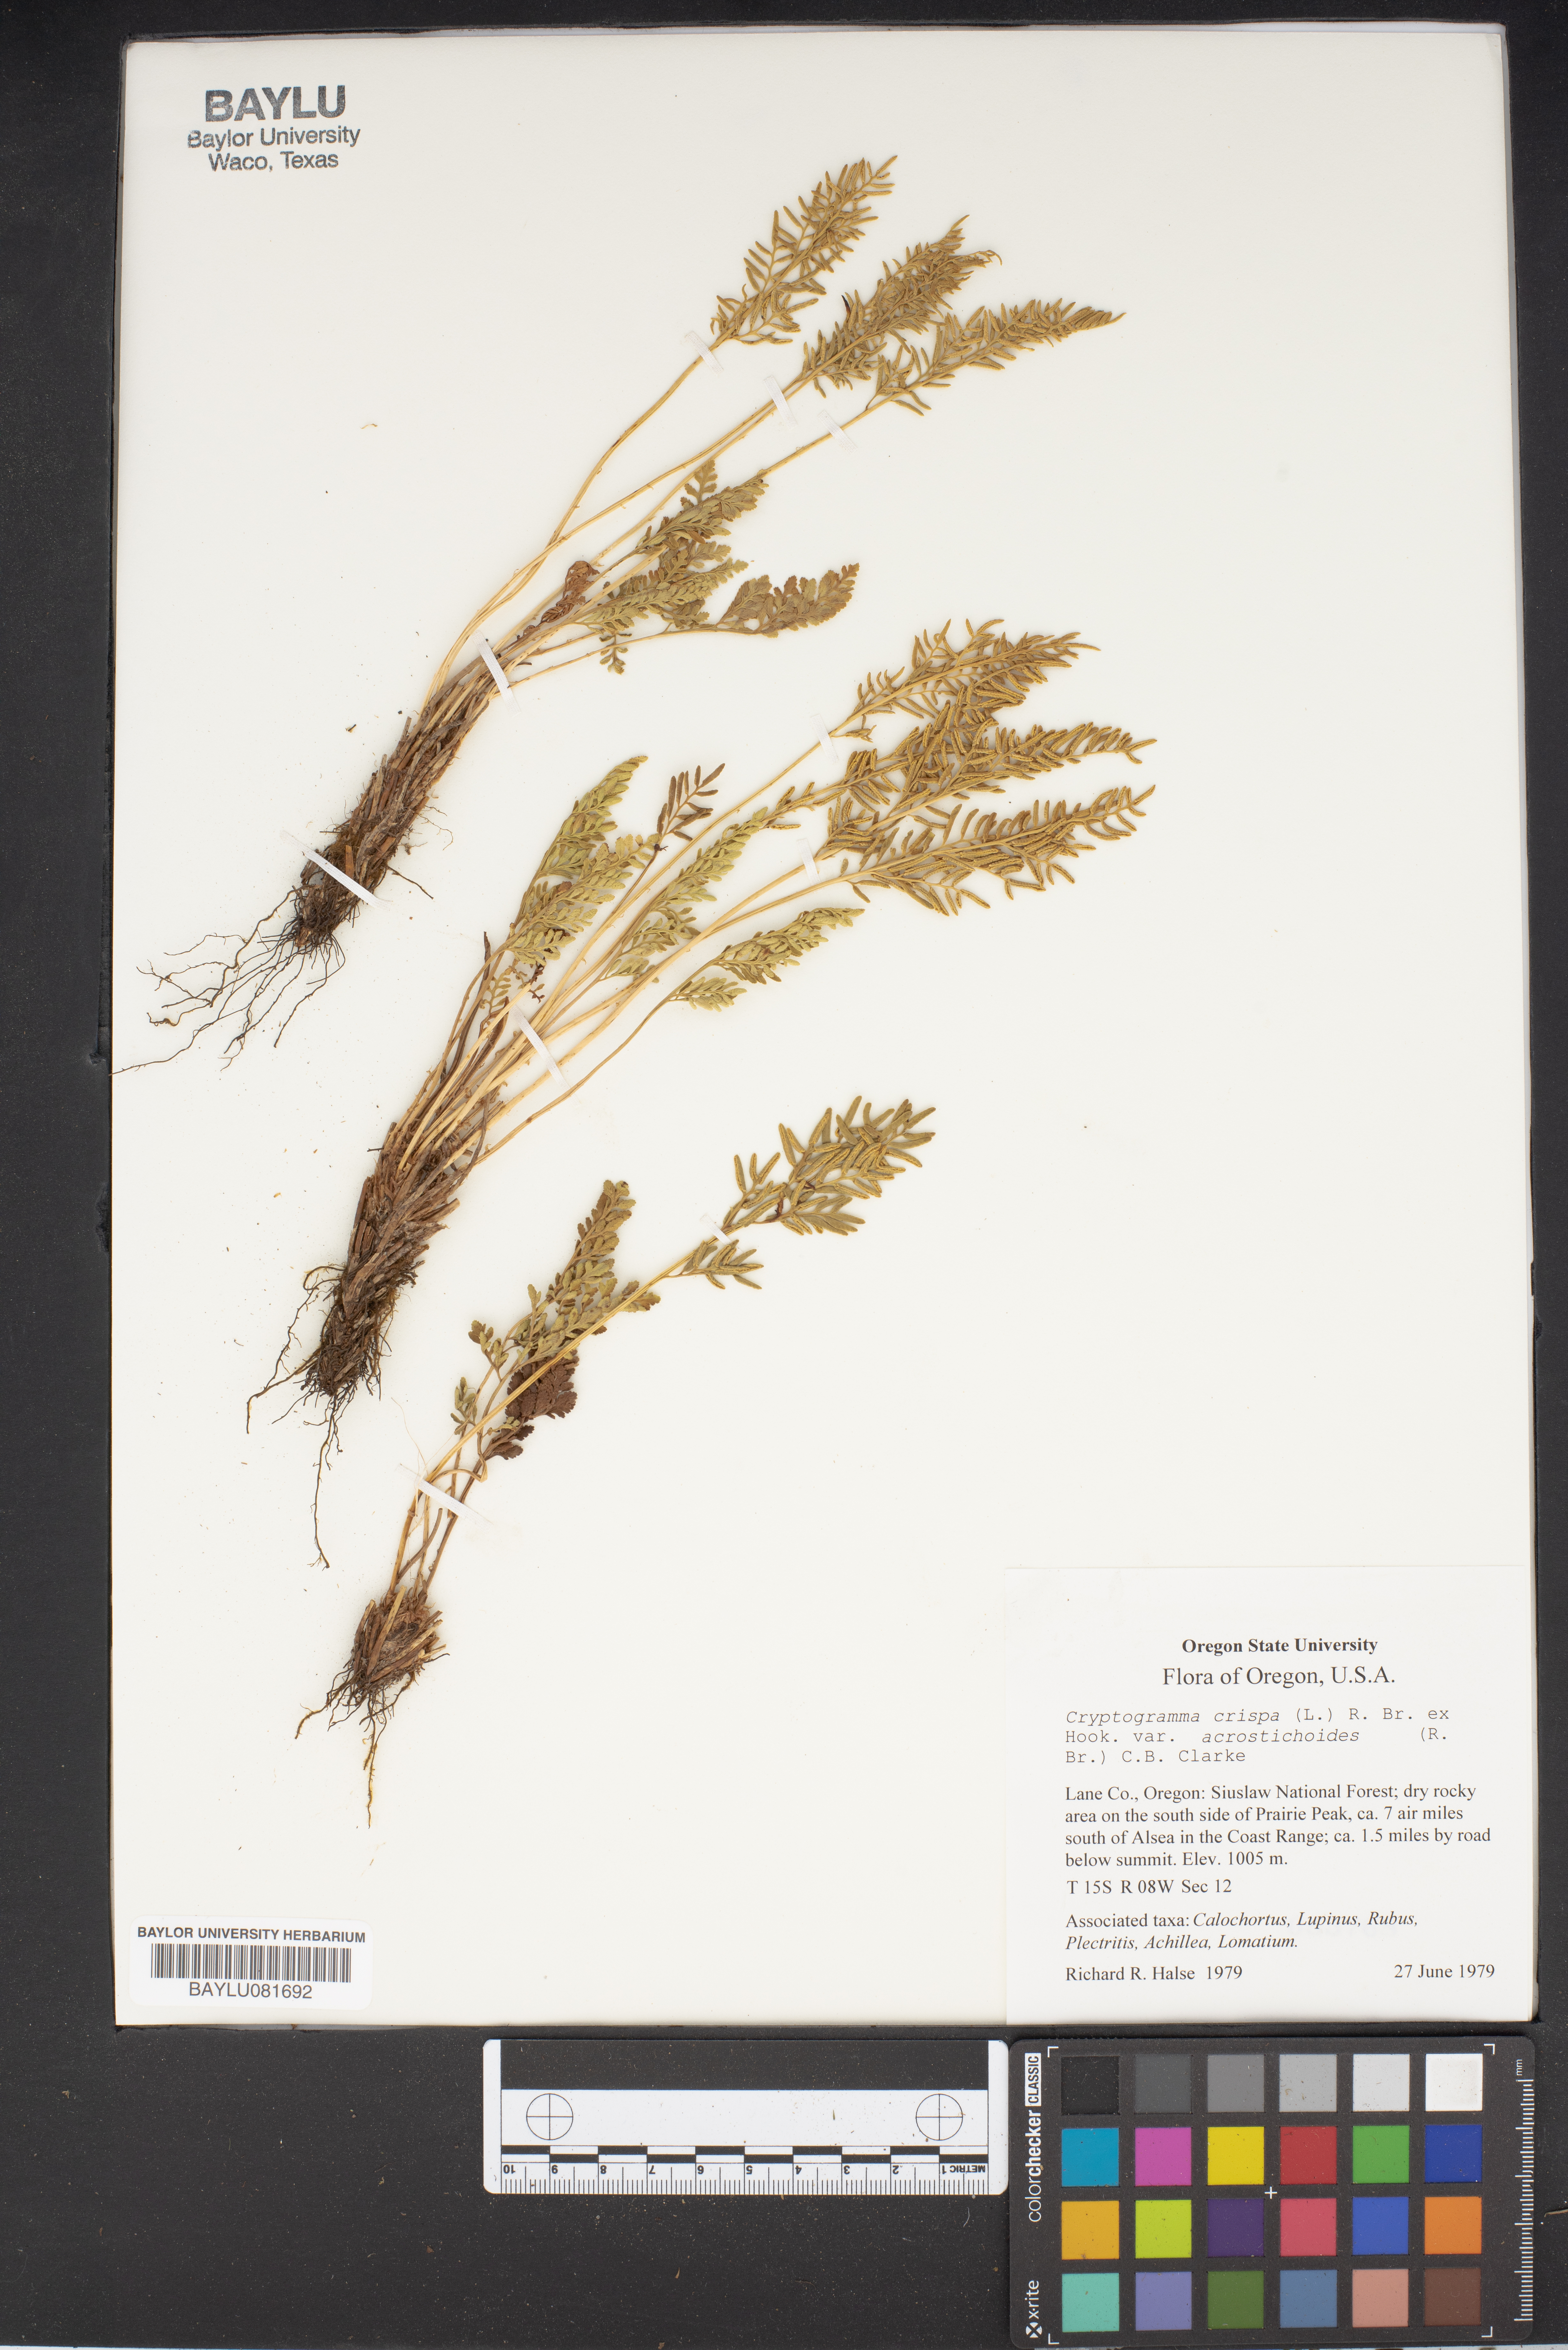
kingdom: Plantae
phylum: Tracheophyta
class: Polypodiopsida
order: Polypodiales
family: Pteridaceae
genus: Cryptogramma
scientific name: Cryptogramma acrostichoides
